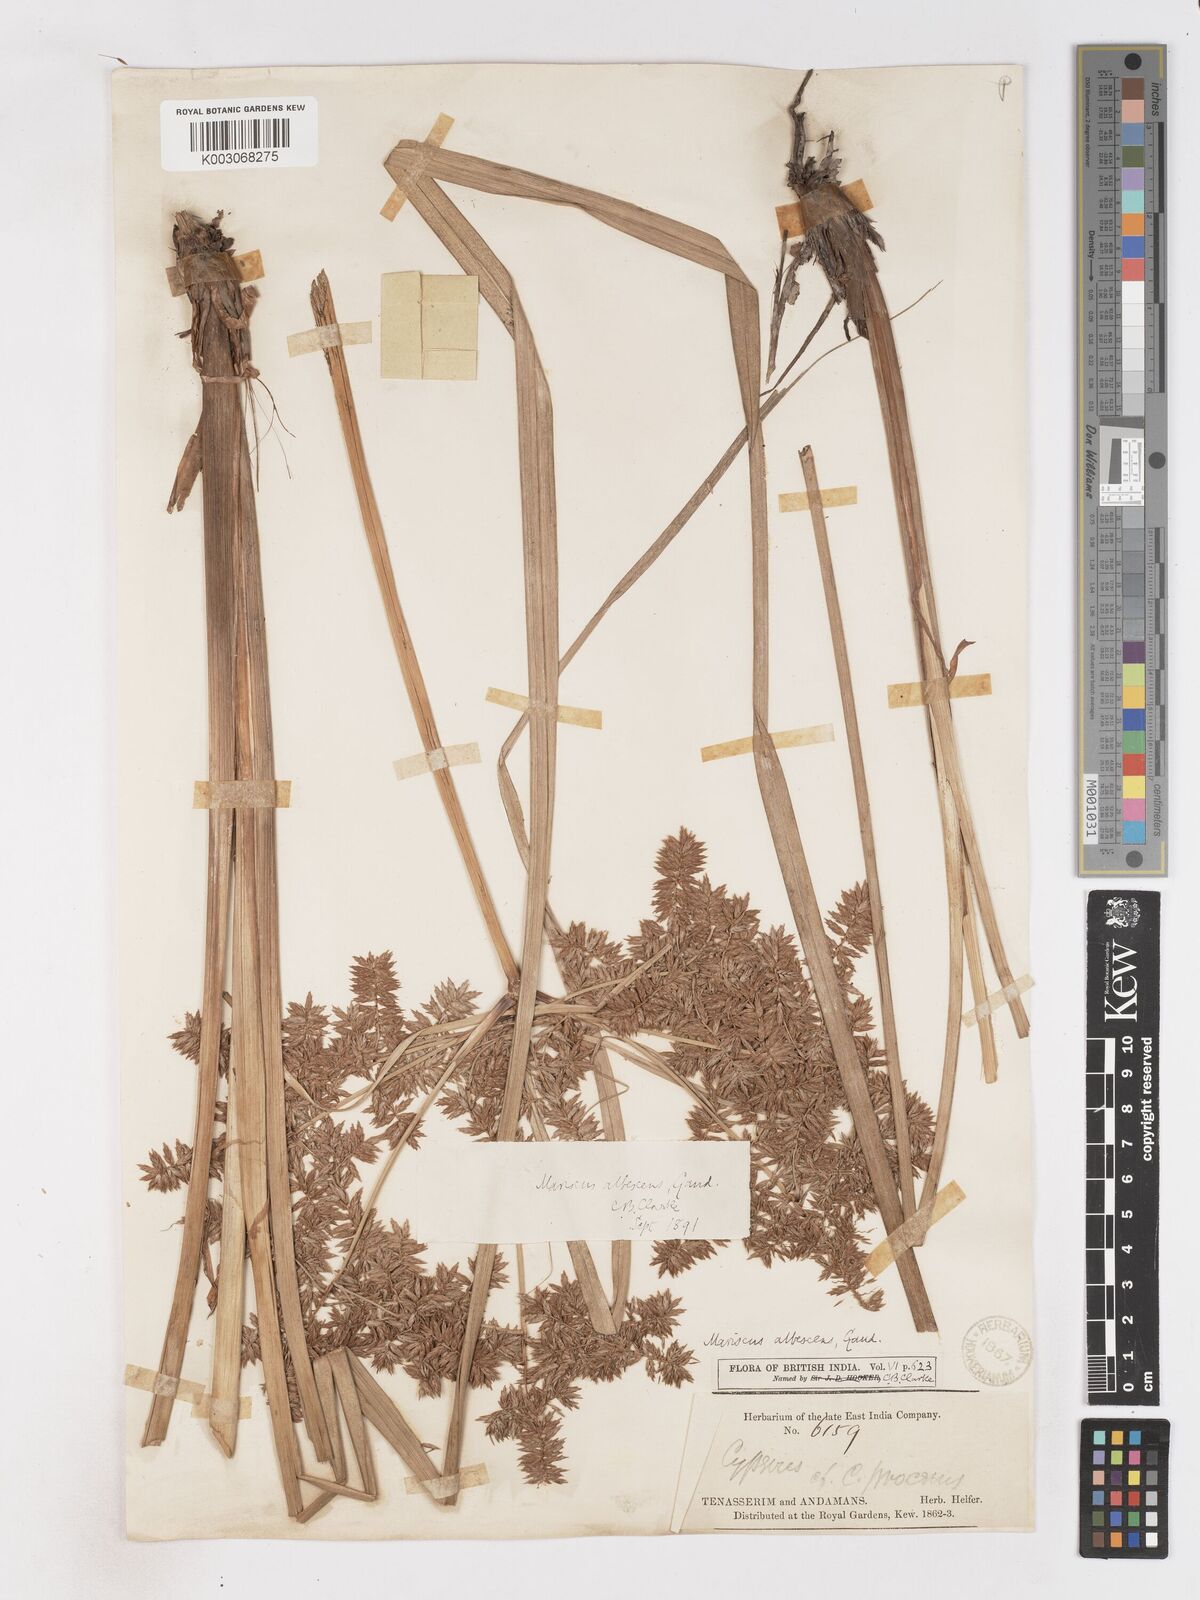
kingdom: Plantae
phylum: Tracheophyta
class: Liliopsida
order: Poales
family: Cyperaceae
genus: Cyperus
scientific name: Cyperus javanicus
